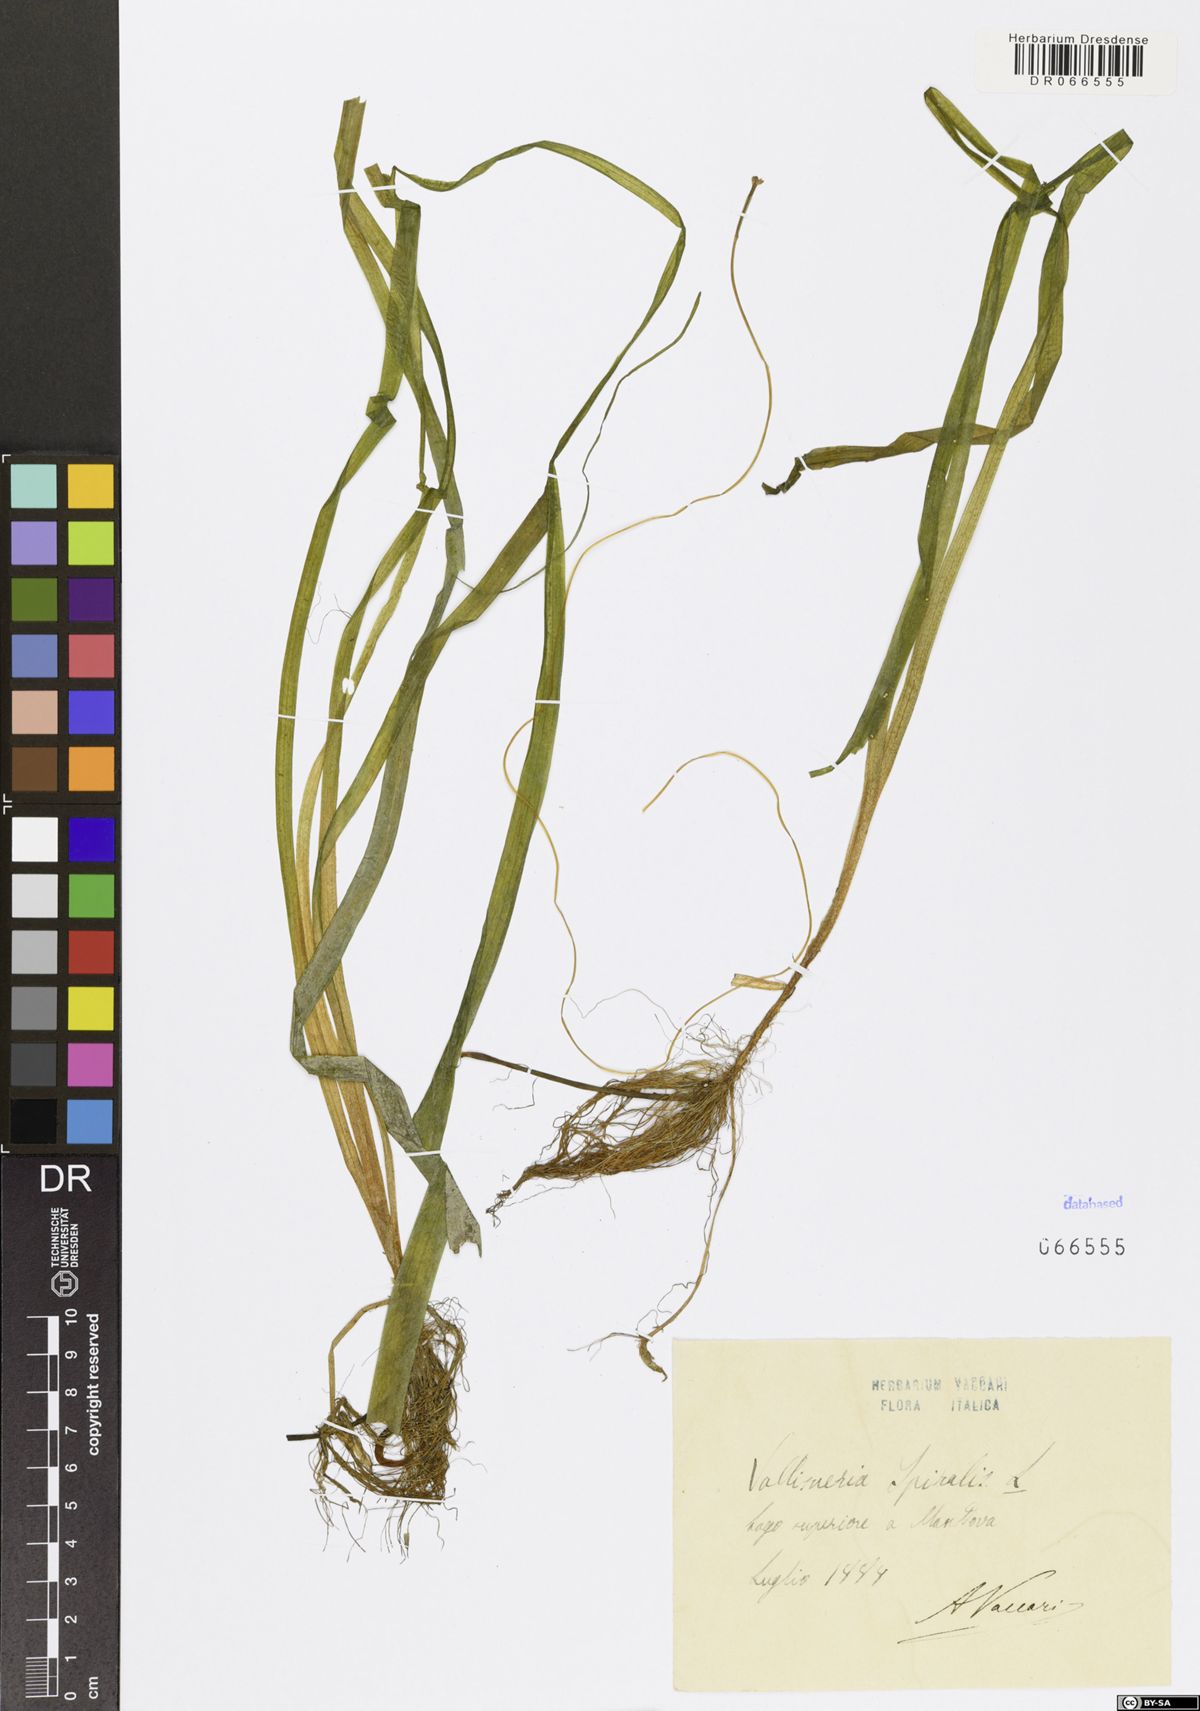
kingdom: Plantae
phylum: Tracheophyta
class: Liliopsida
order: Alismatales
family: Hydrocharitaceae
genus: Vallisneria
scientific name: Vallisneria spiralis
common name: Tapegrass
